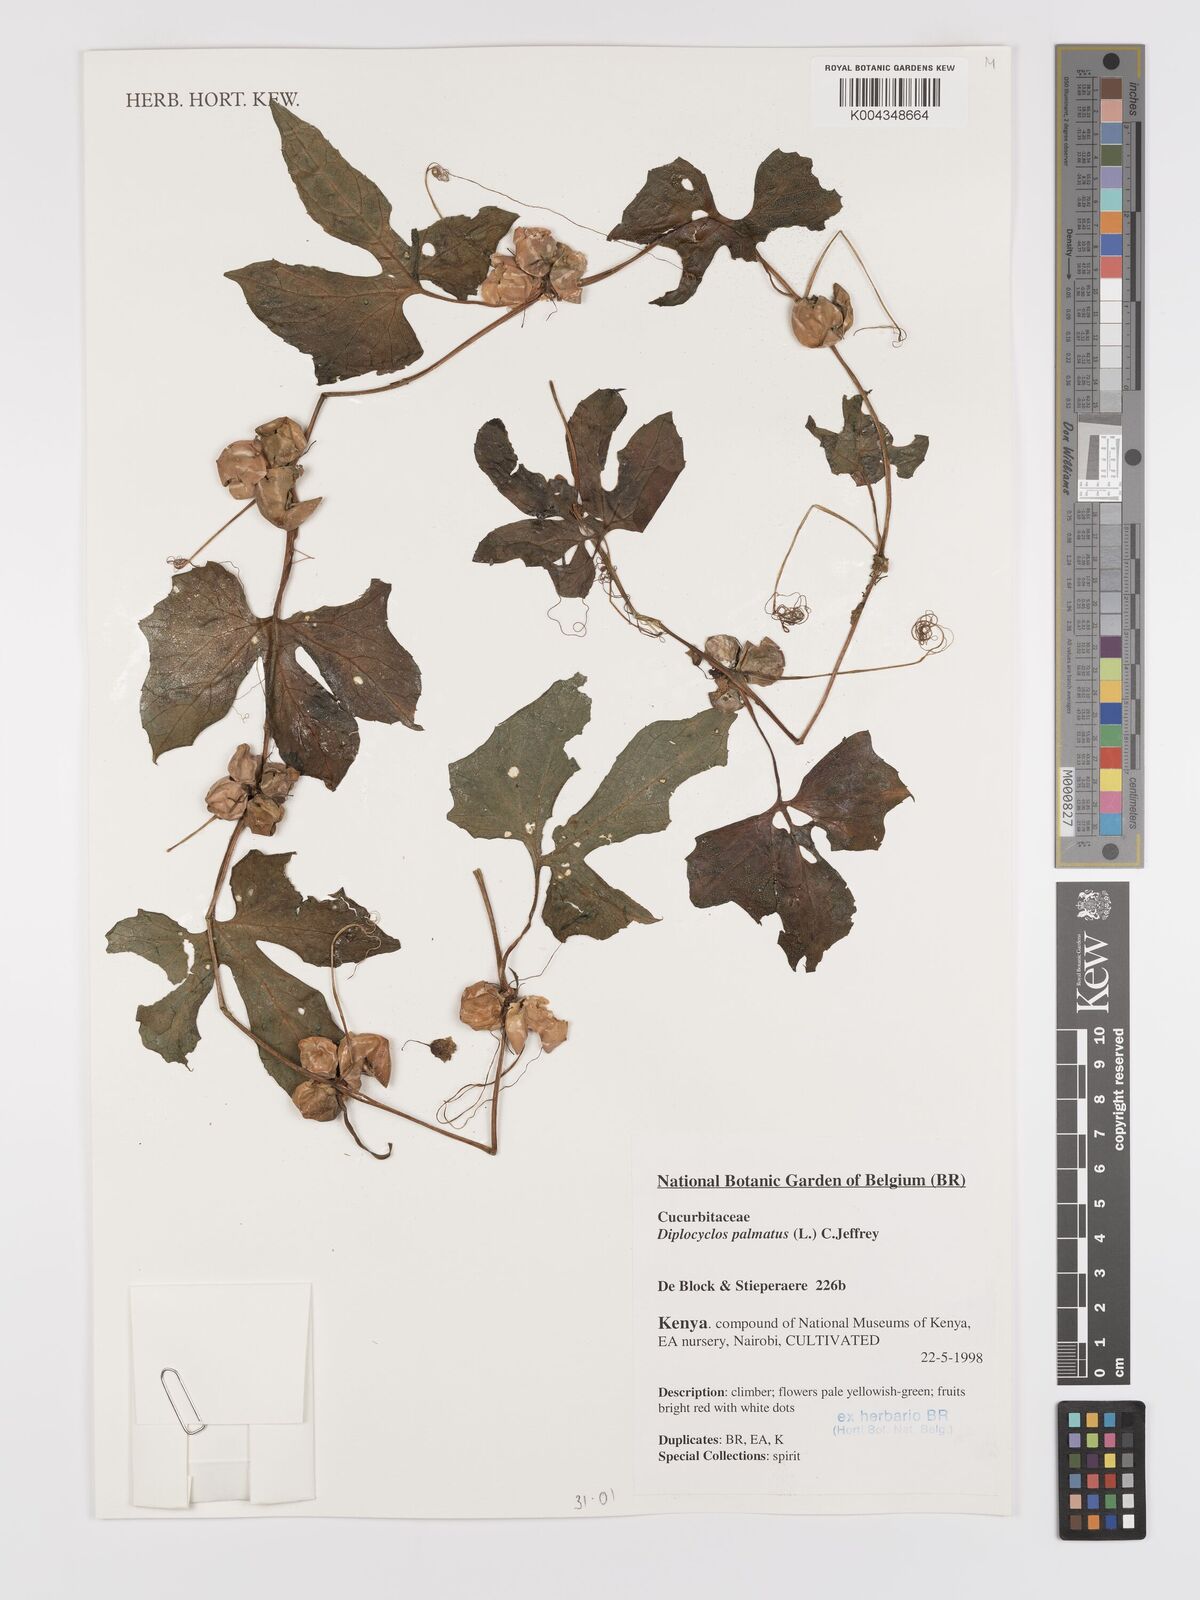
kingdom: Plantae
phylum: Tracheophyta
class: Magnoliopsida
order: Cucurbitales
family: Cucurbitaceae
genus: Diplocyclos
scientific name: Diplocyclos palmatus
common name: Striped-cucumber
